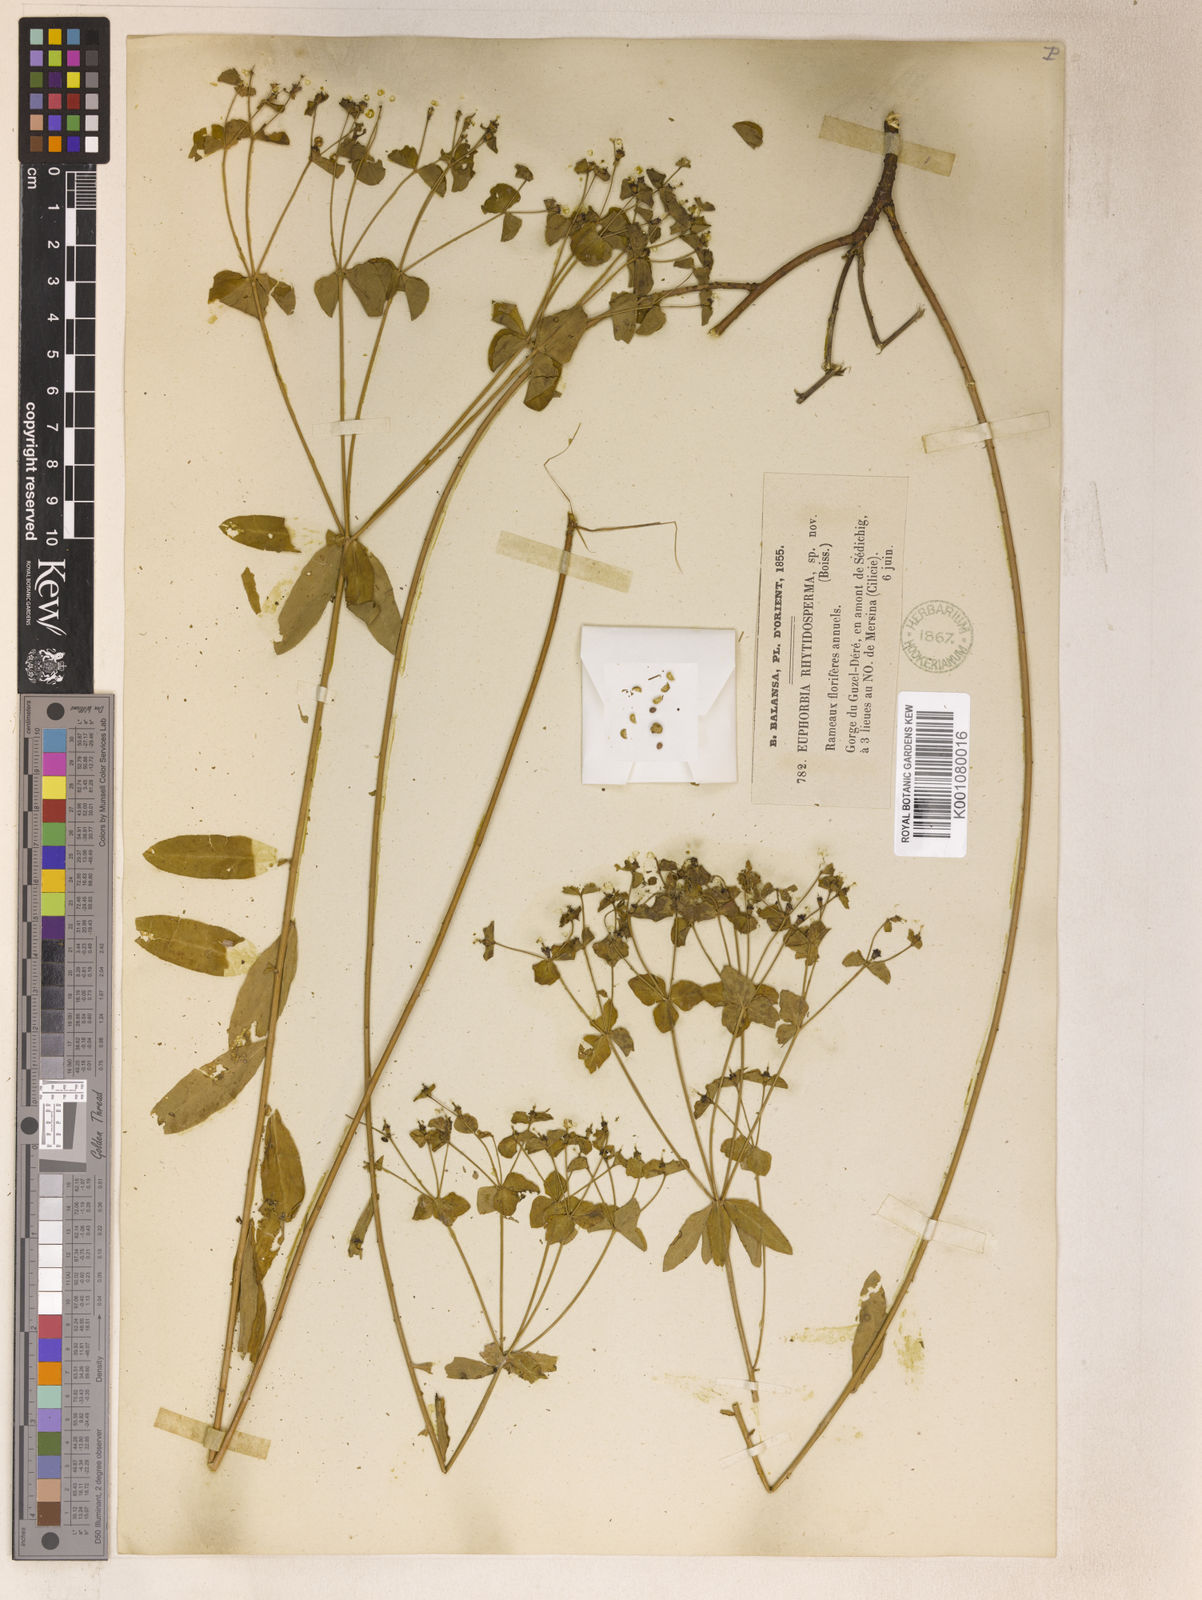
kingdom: Plantae
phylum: Tracheophyta
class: Magnoliopsida
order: Malpighiales
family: Euphorbiaceae
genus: Euphorbia
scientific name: Euphorbia rhytidosperma
